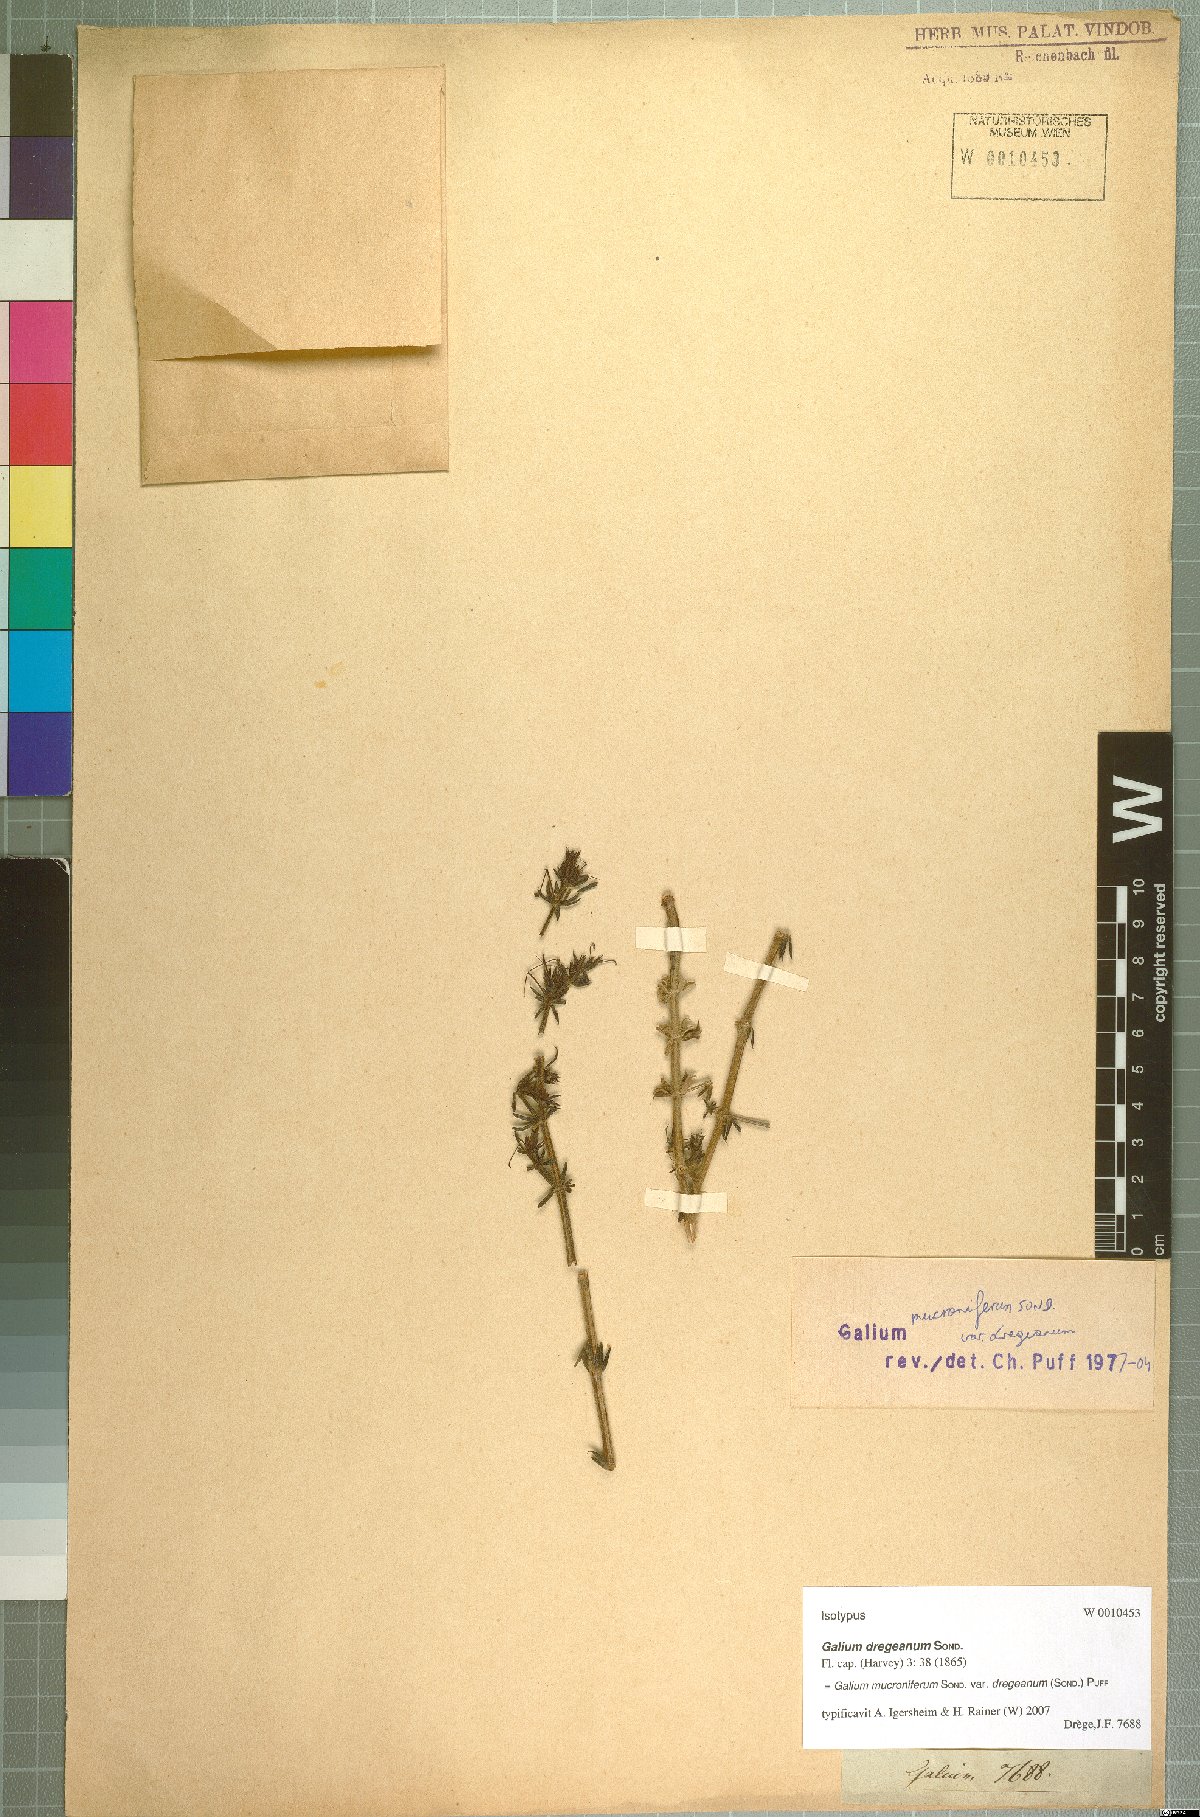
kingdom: Plantae
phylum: Tracheophyta
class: Magnoliopsida
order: Gentianales
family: Rubiaceae
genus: Galium
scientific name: Galium mucroniferum
